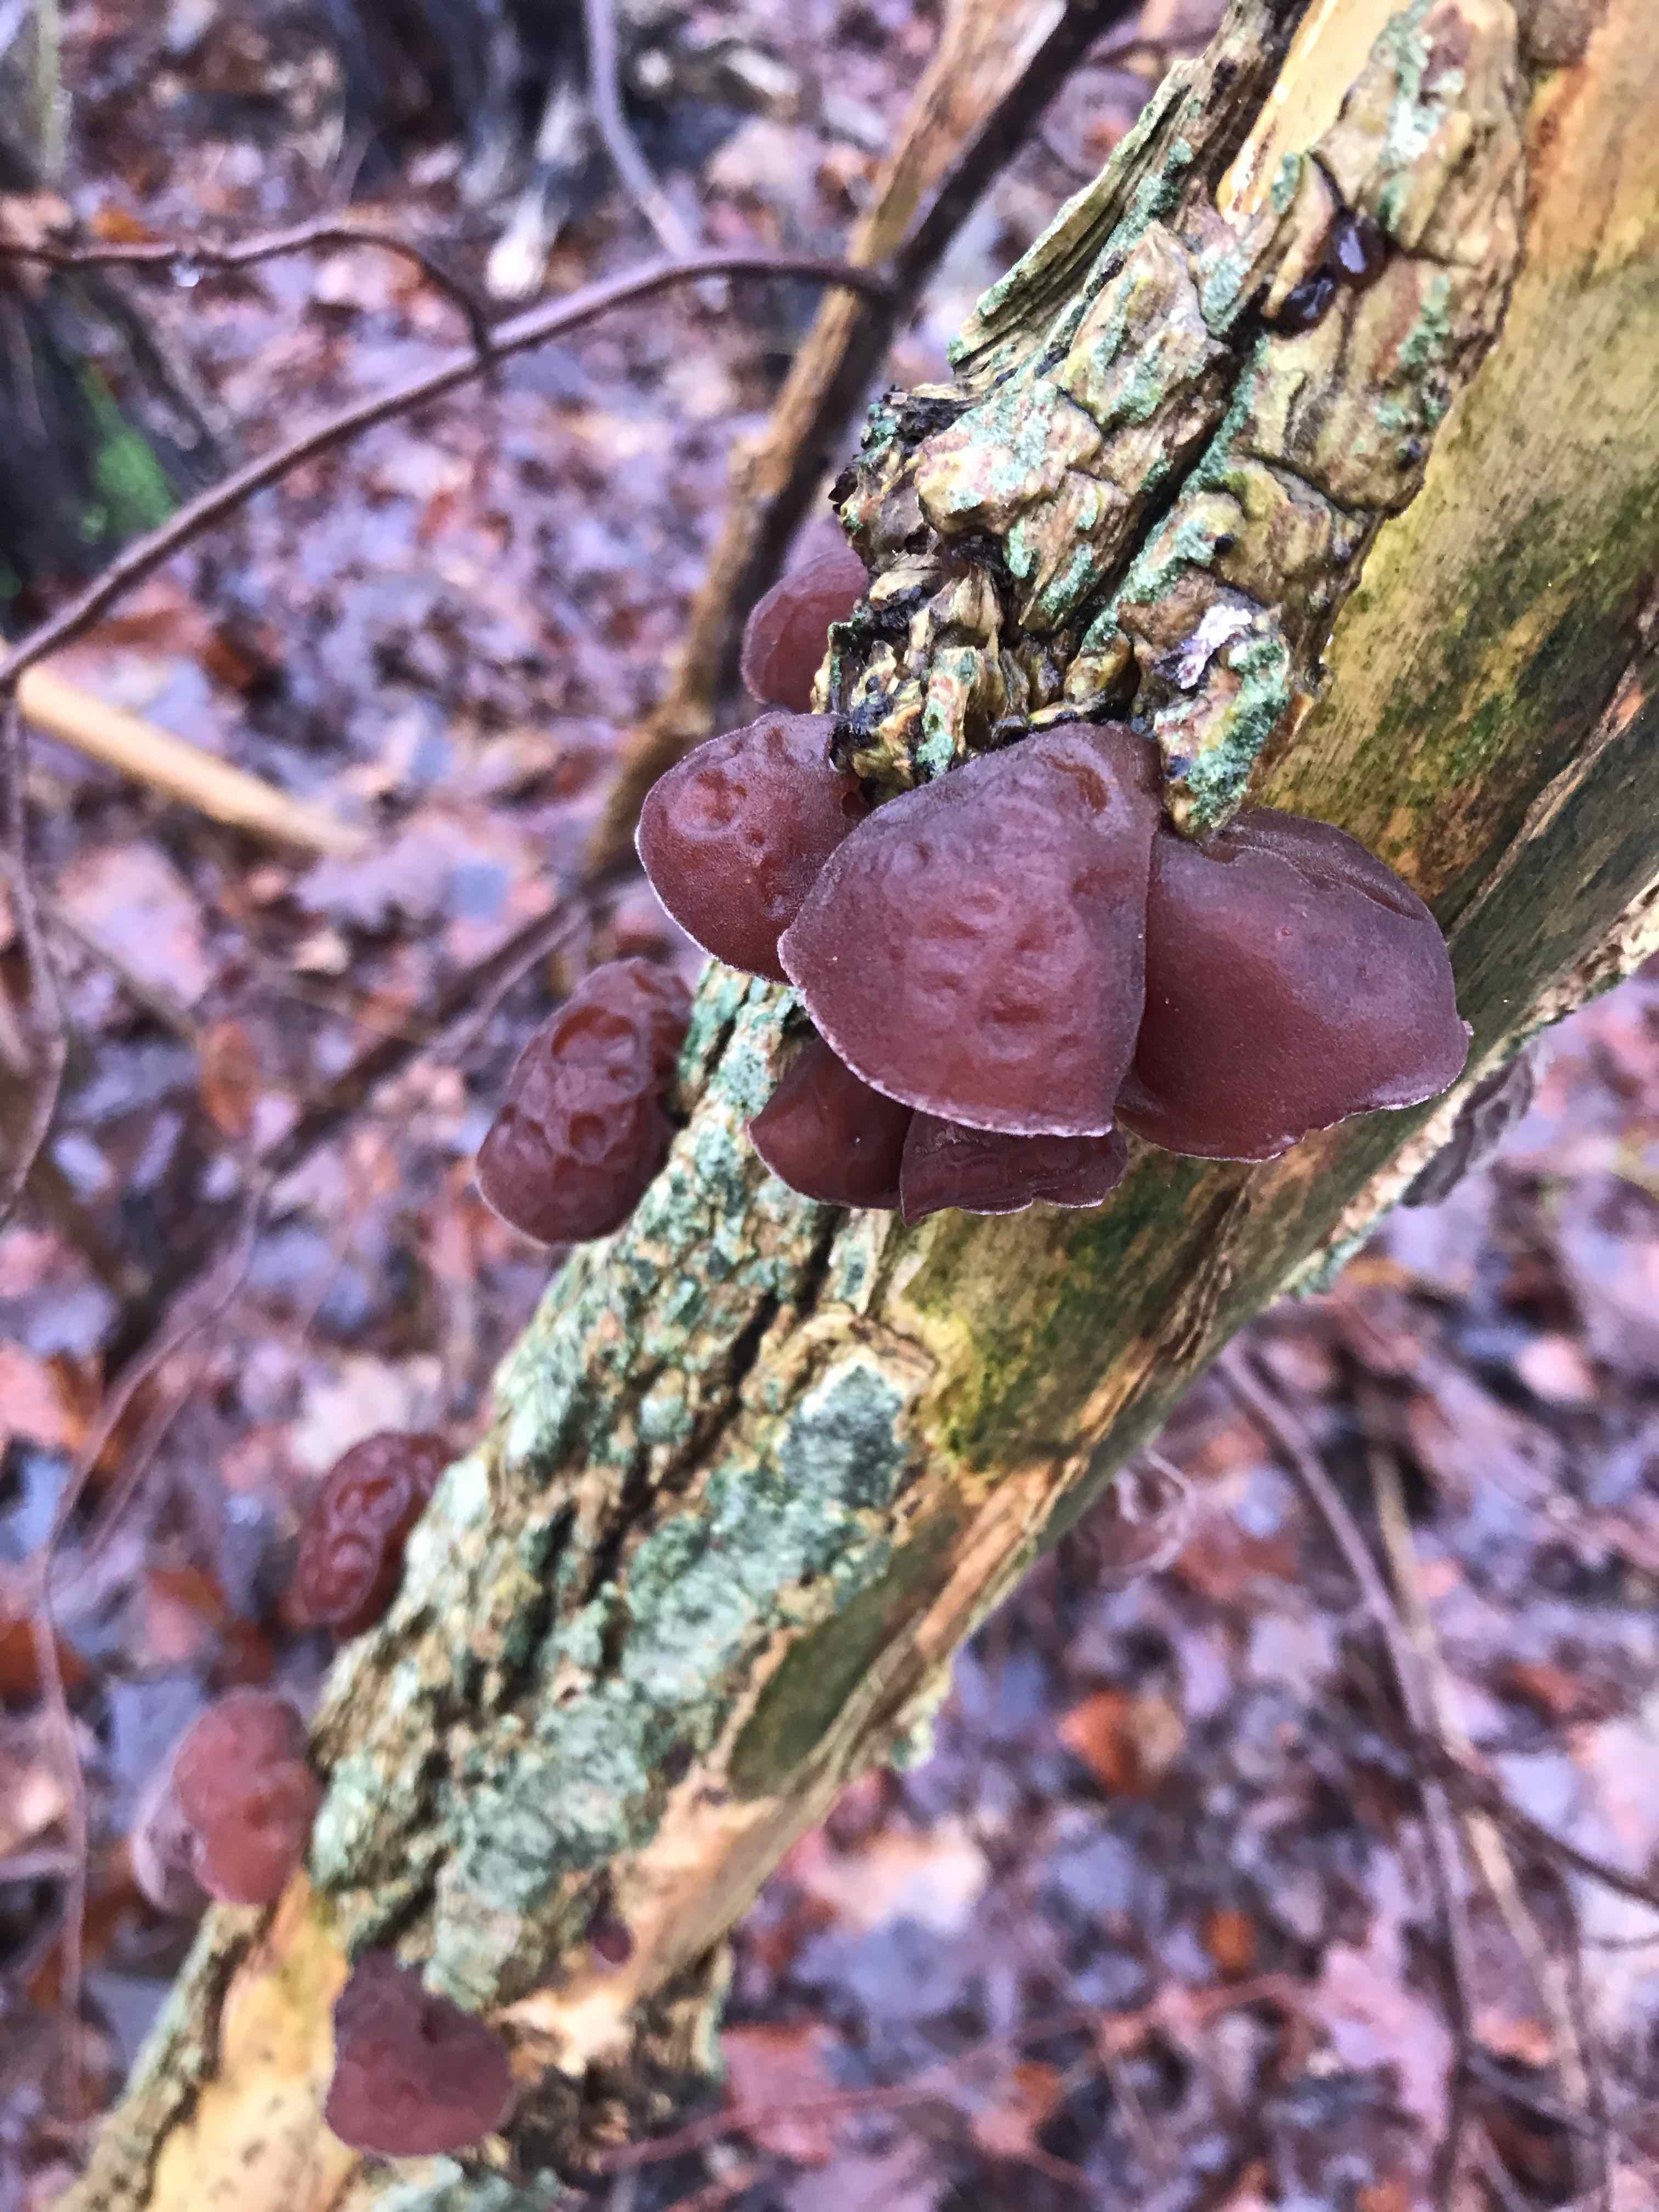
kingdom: Fungi
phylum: Basidiomycota
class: Agaricomycetes
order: Auriculariales
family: Auriculariaceae
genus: Auricularia
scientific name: Auricularia auricula-judae
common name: almindelig judasøre
